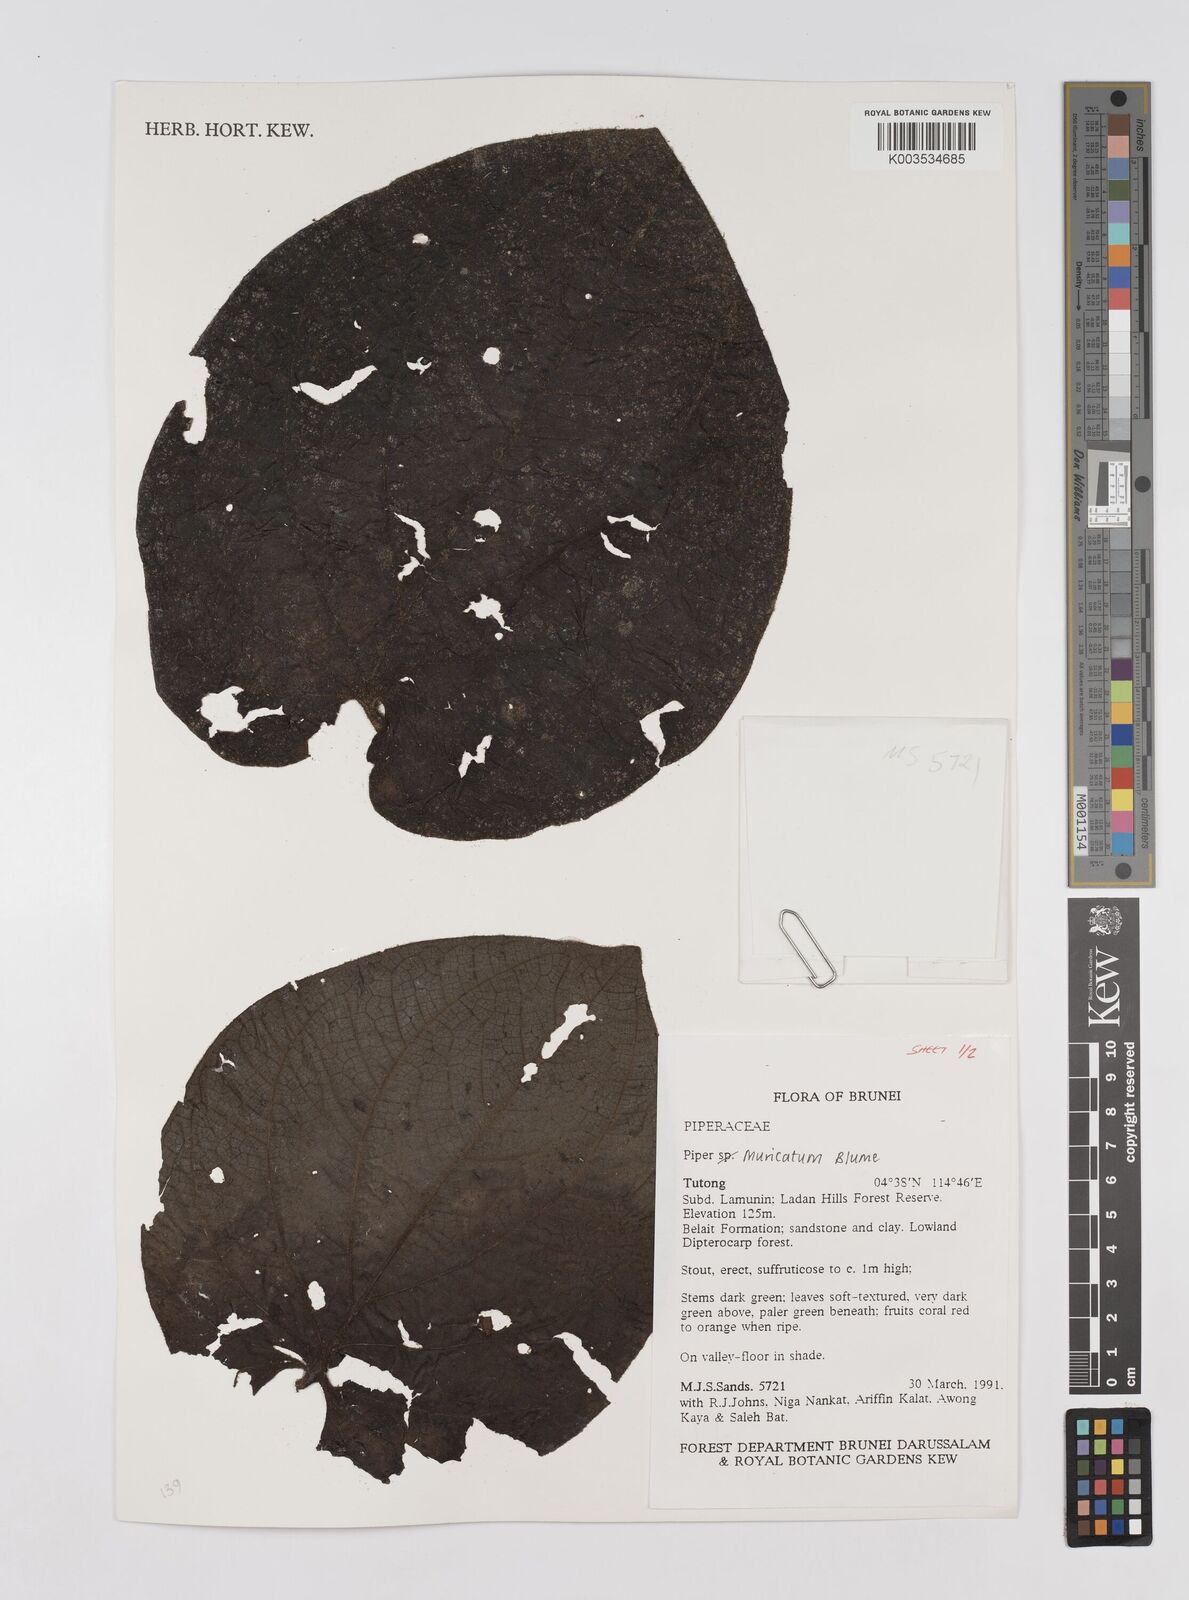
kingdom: Plantae
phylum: Tracheophyta
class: Magnoliopsida
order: Piperales
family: Piperaceae
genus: Piper
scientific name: Piper muricatum
